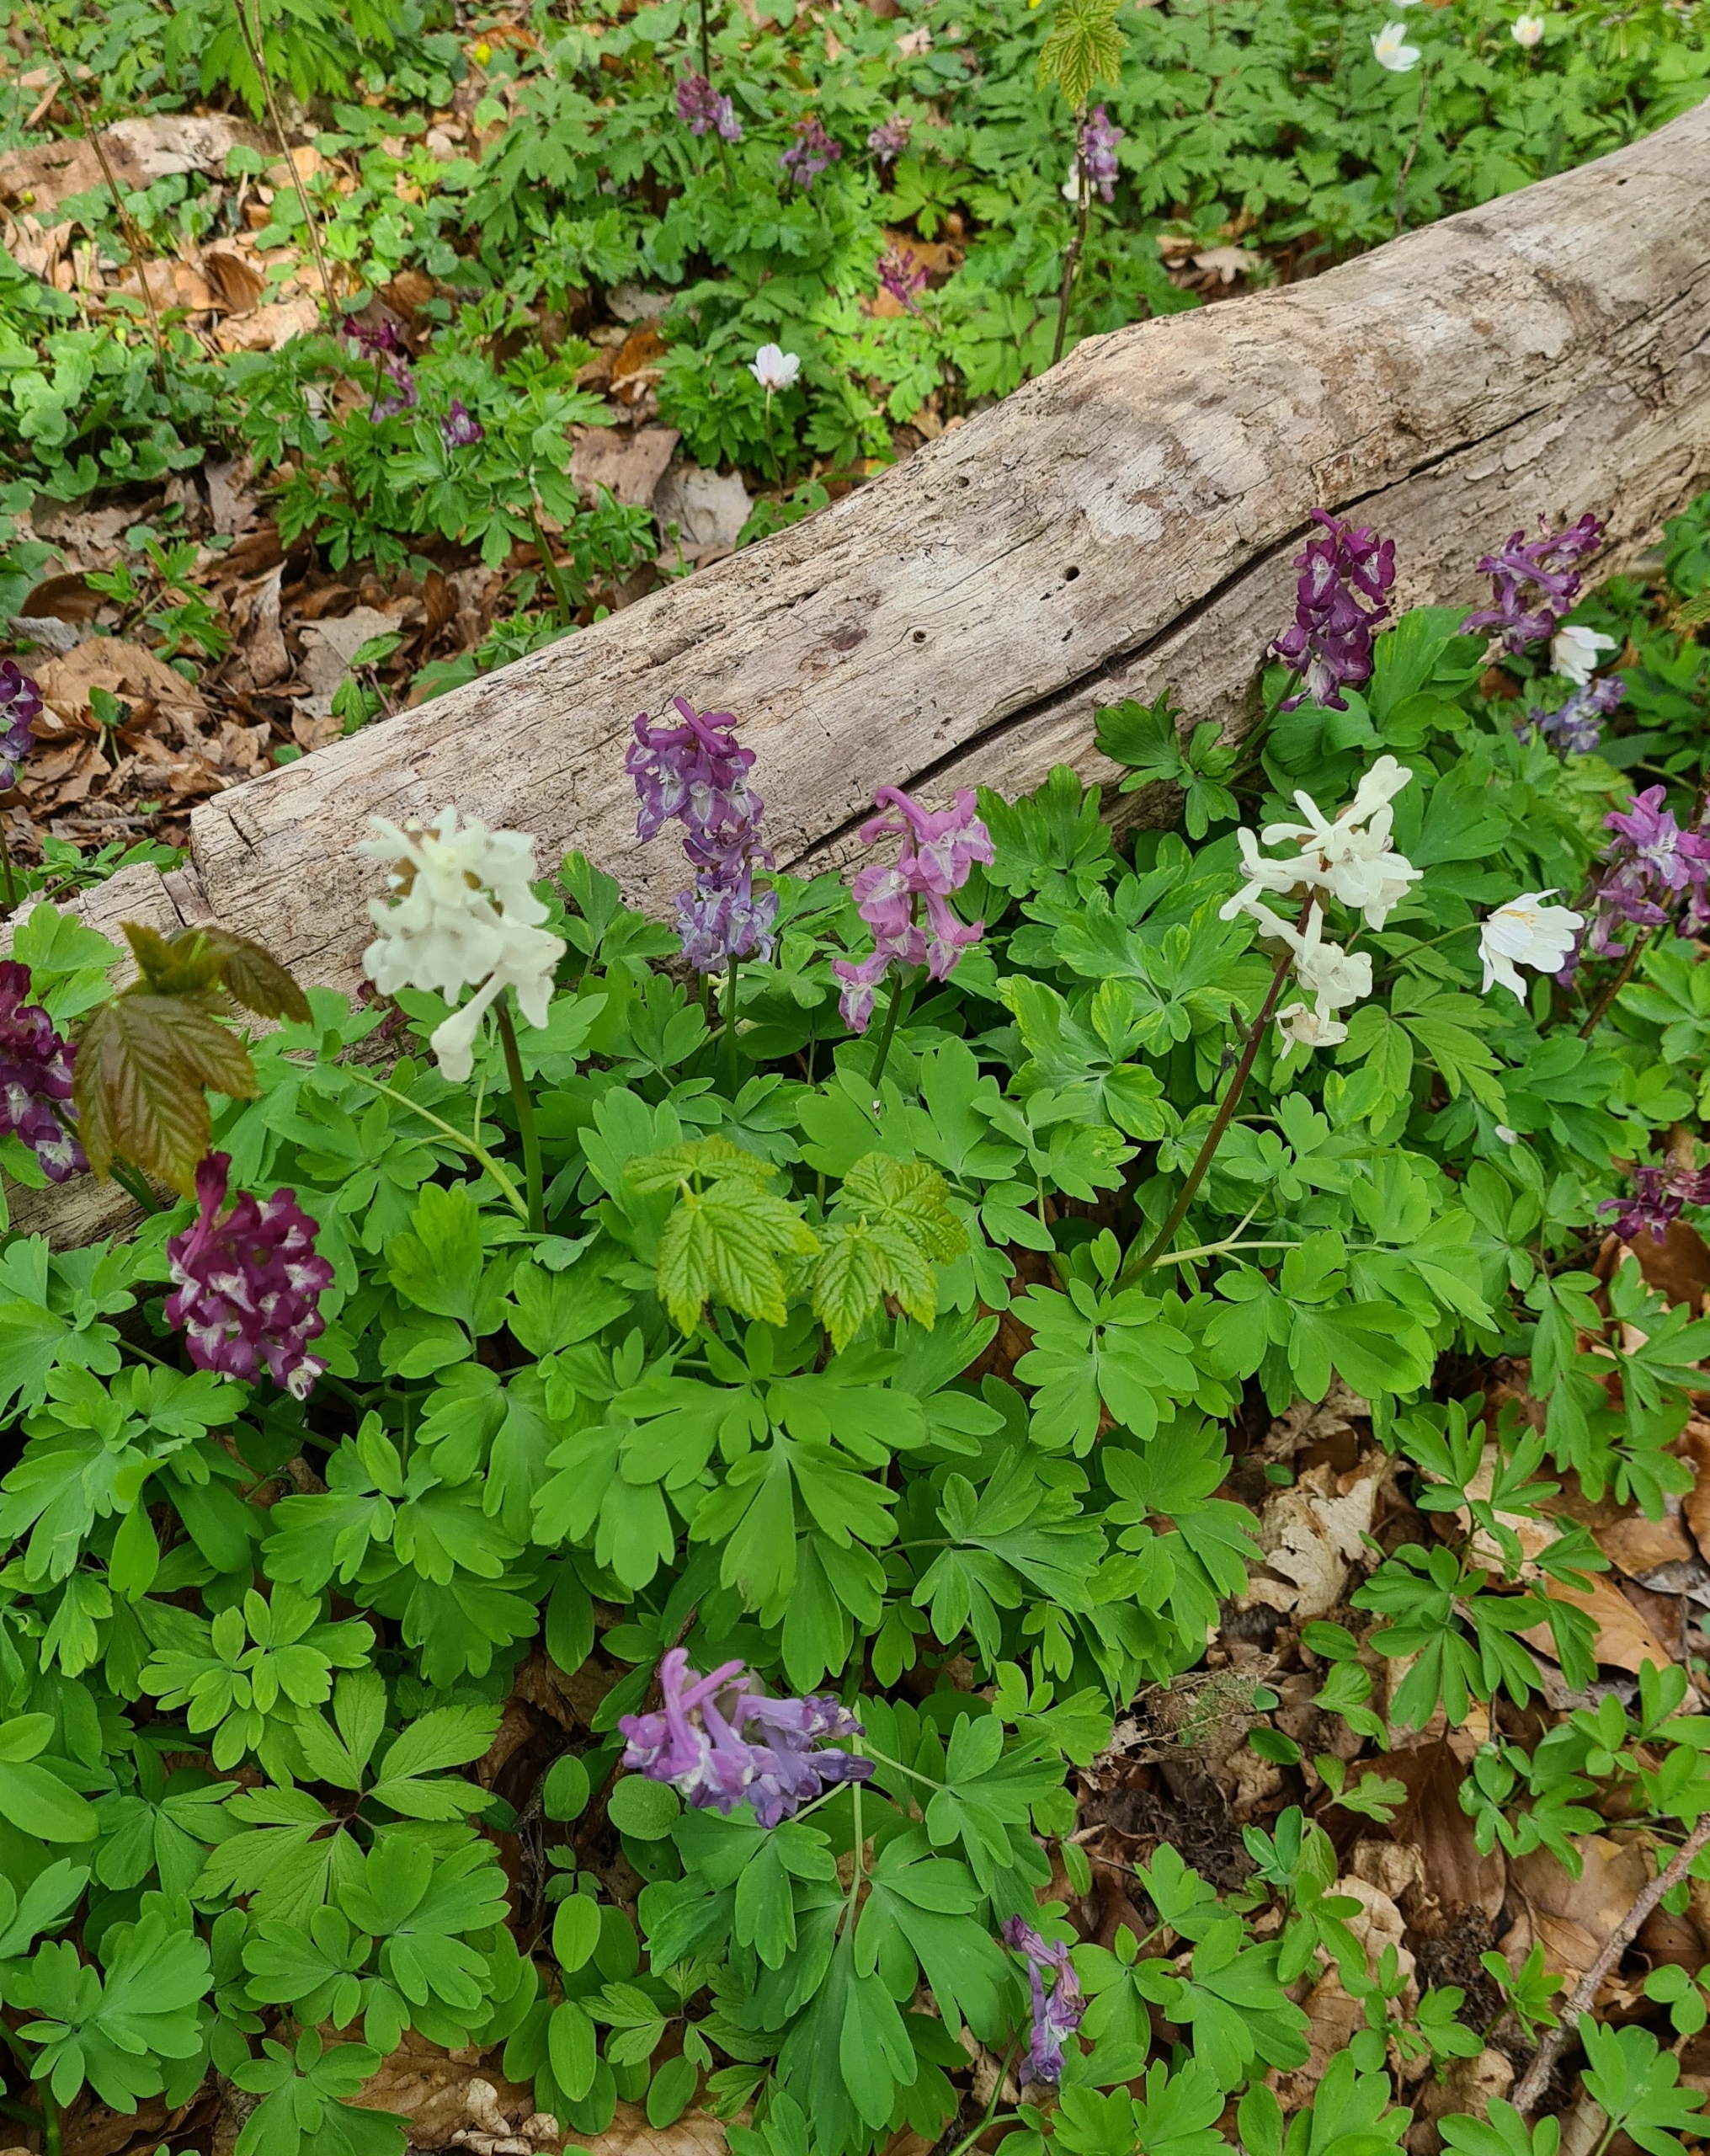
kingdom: Plantae
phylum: Tracheophyta
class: Magnoliopsida
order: Ranunculales
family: Papaveraceae
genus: Corydalis
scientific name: Corydalis cava
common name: Hulrodet lærkespore
